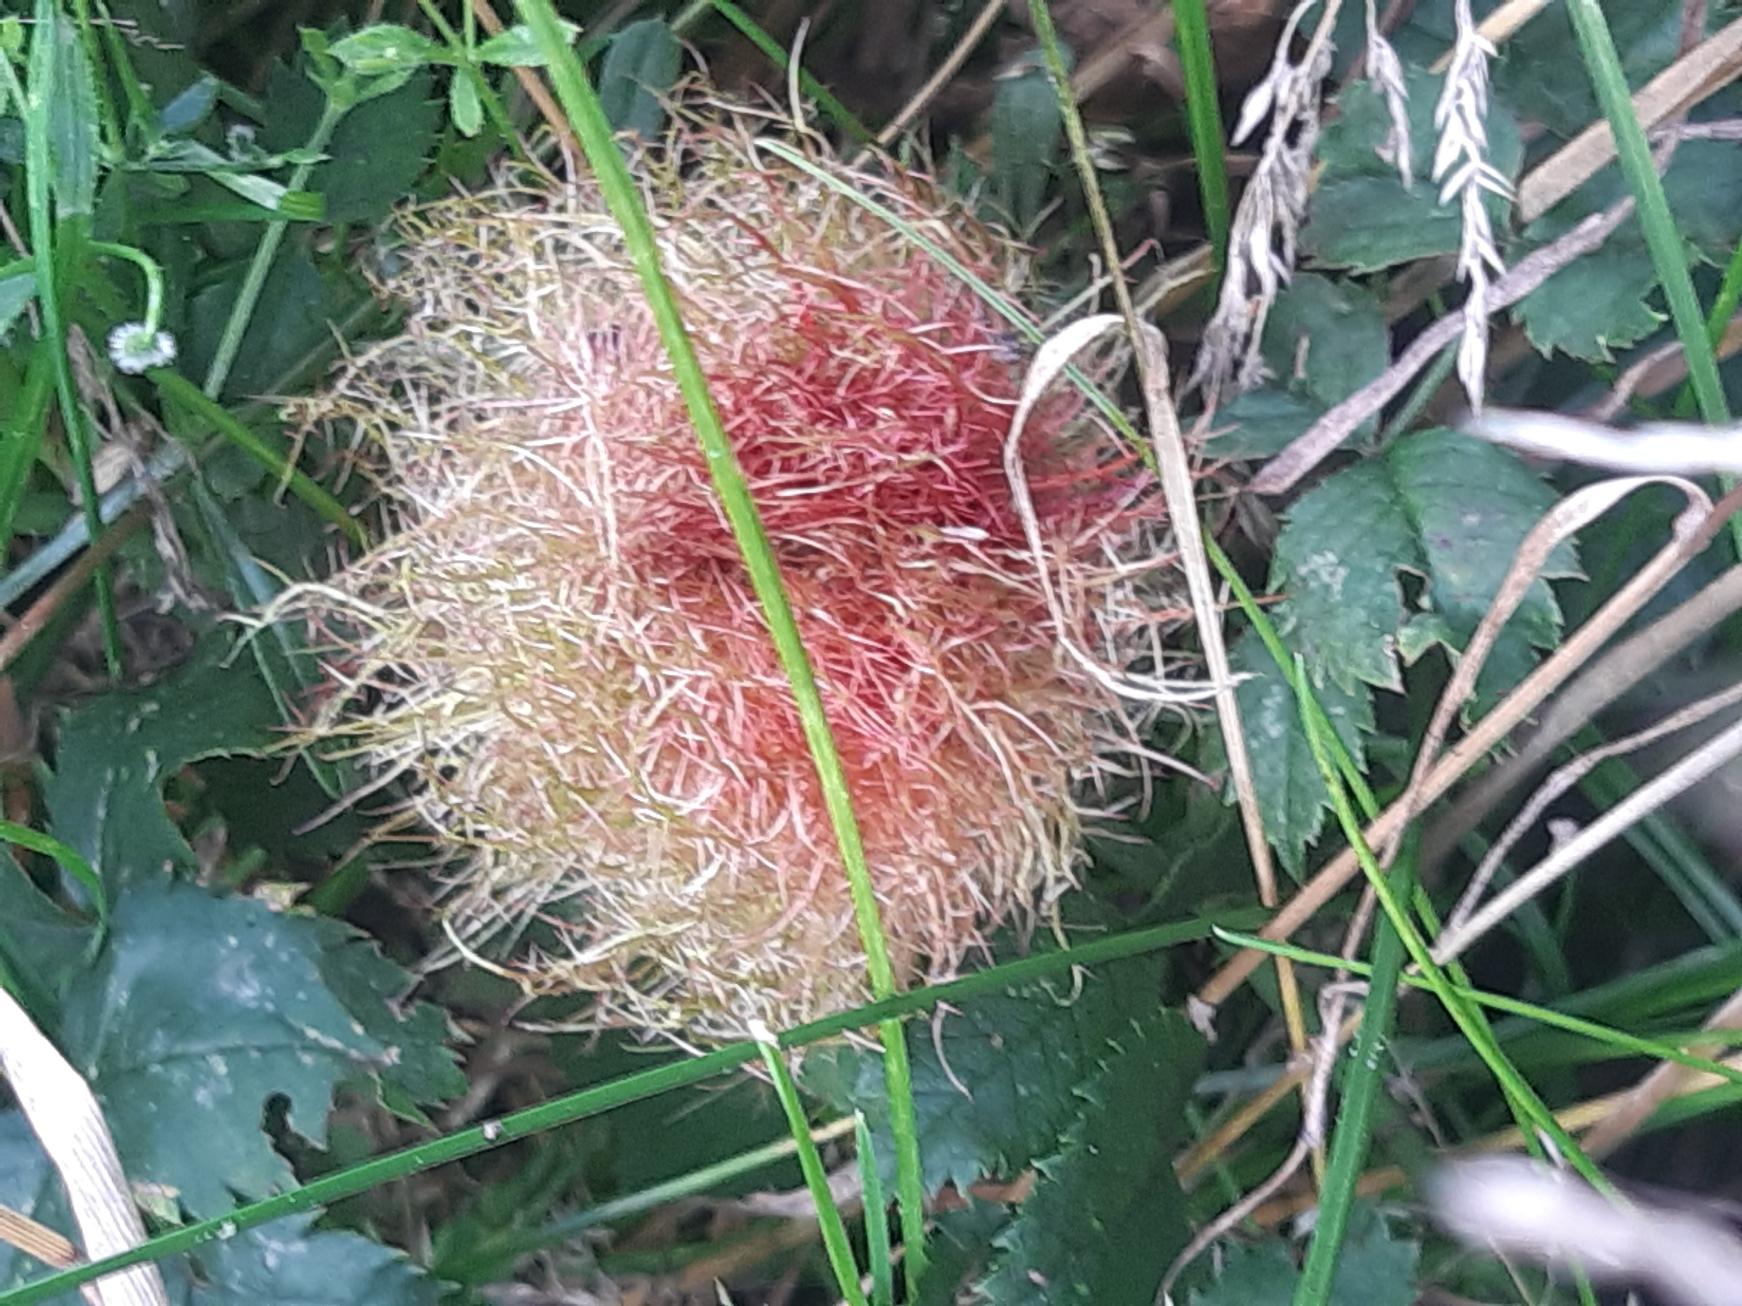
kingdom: Animalia
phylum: Arthropoda
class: Insecta
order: Hymenoptera
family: Cynipidae
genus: Diplolepis
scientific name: Diplolepis rosae
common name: Bedeguargalhveps
